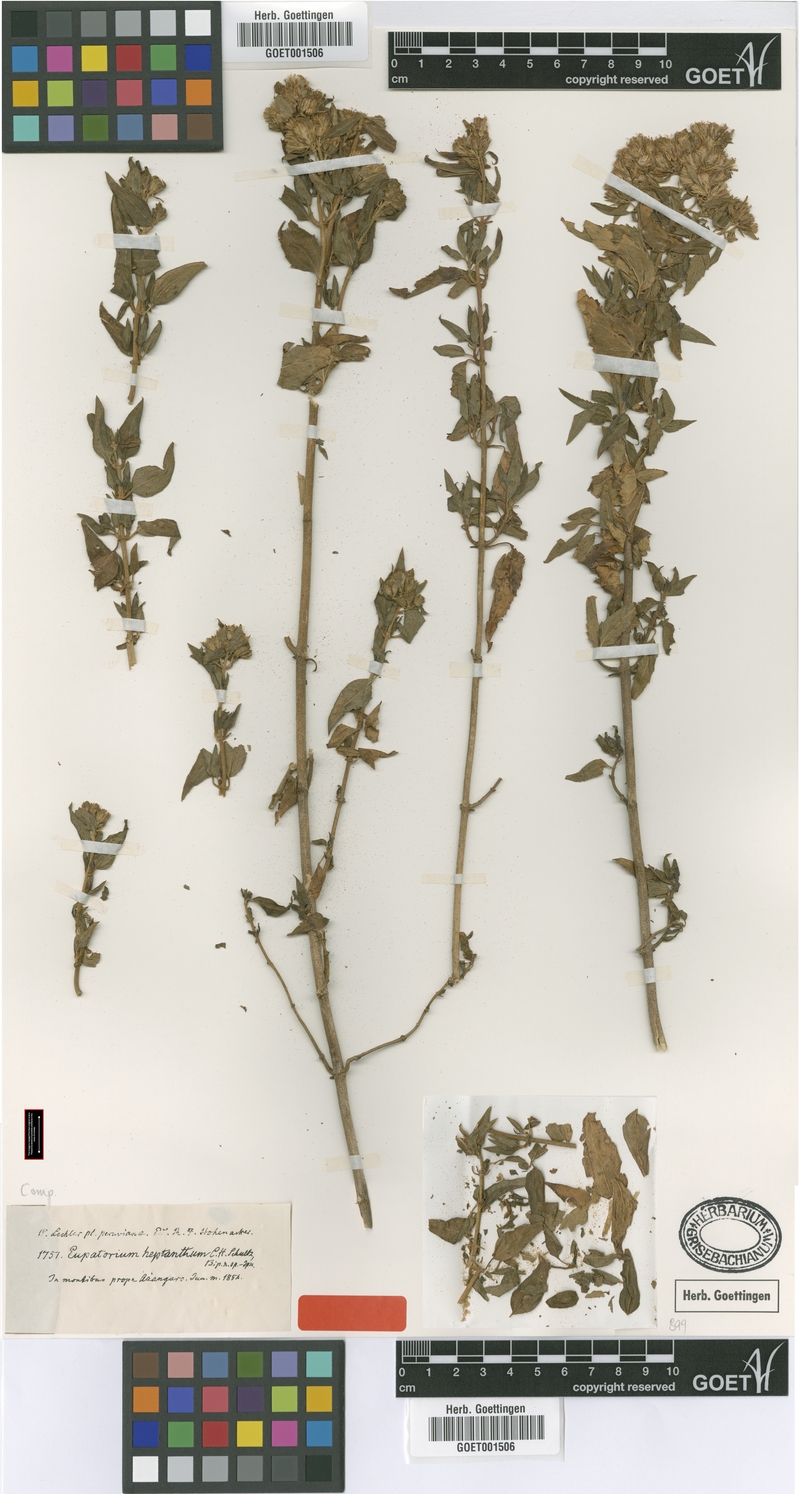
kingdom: Plantae
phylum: Tracheophyta
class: Magnoliopsida
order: Asterales
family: Asteraceae
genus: Ophryosporus
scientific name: Ophryosporus heptanthus
